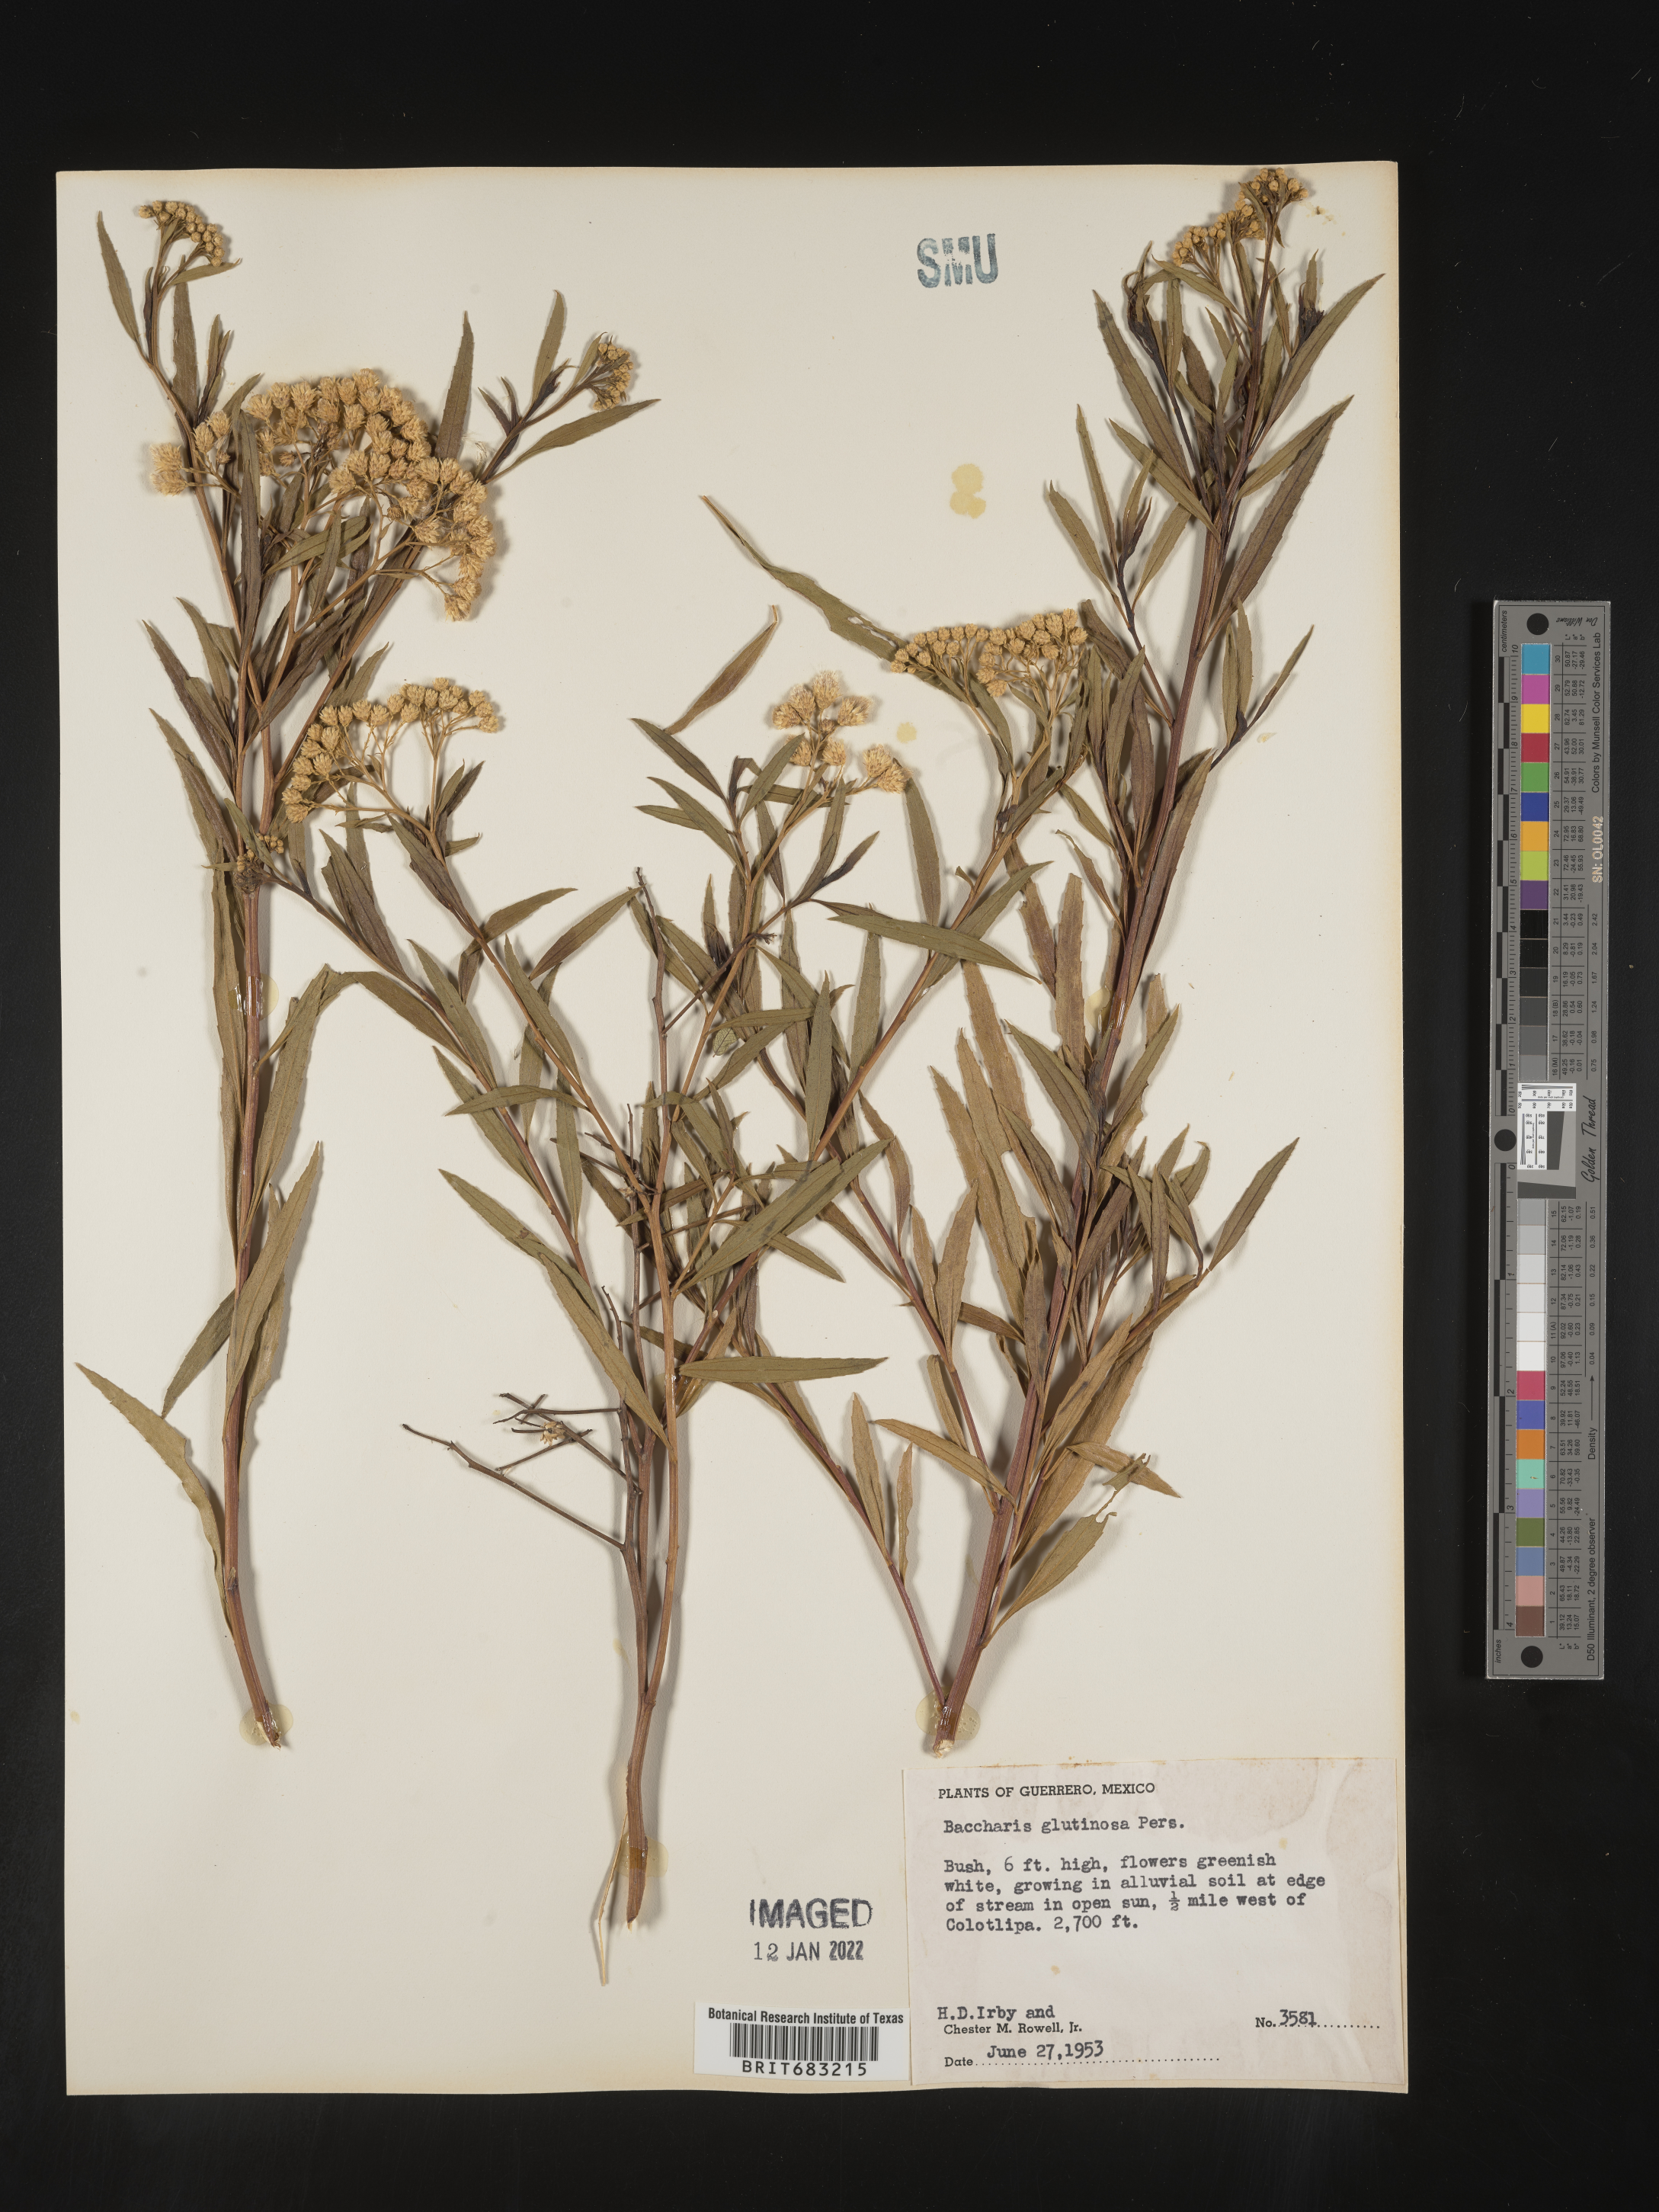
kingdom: Plantae
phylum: Tracheophyta
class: Magnoliopsida
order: Asterales
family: Asteraceae
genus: Baccharis
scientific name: Baccharis salicifolia
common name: Sticky baccharis
